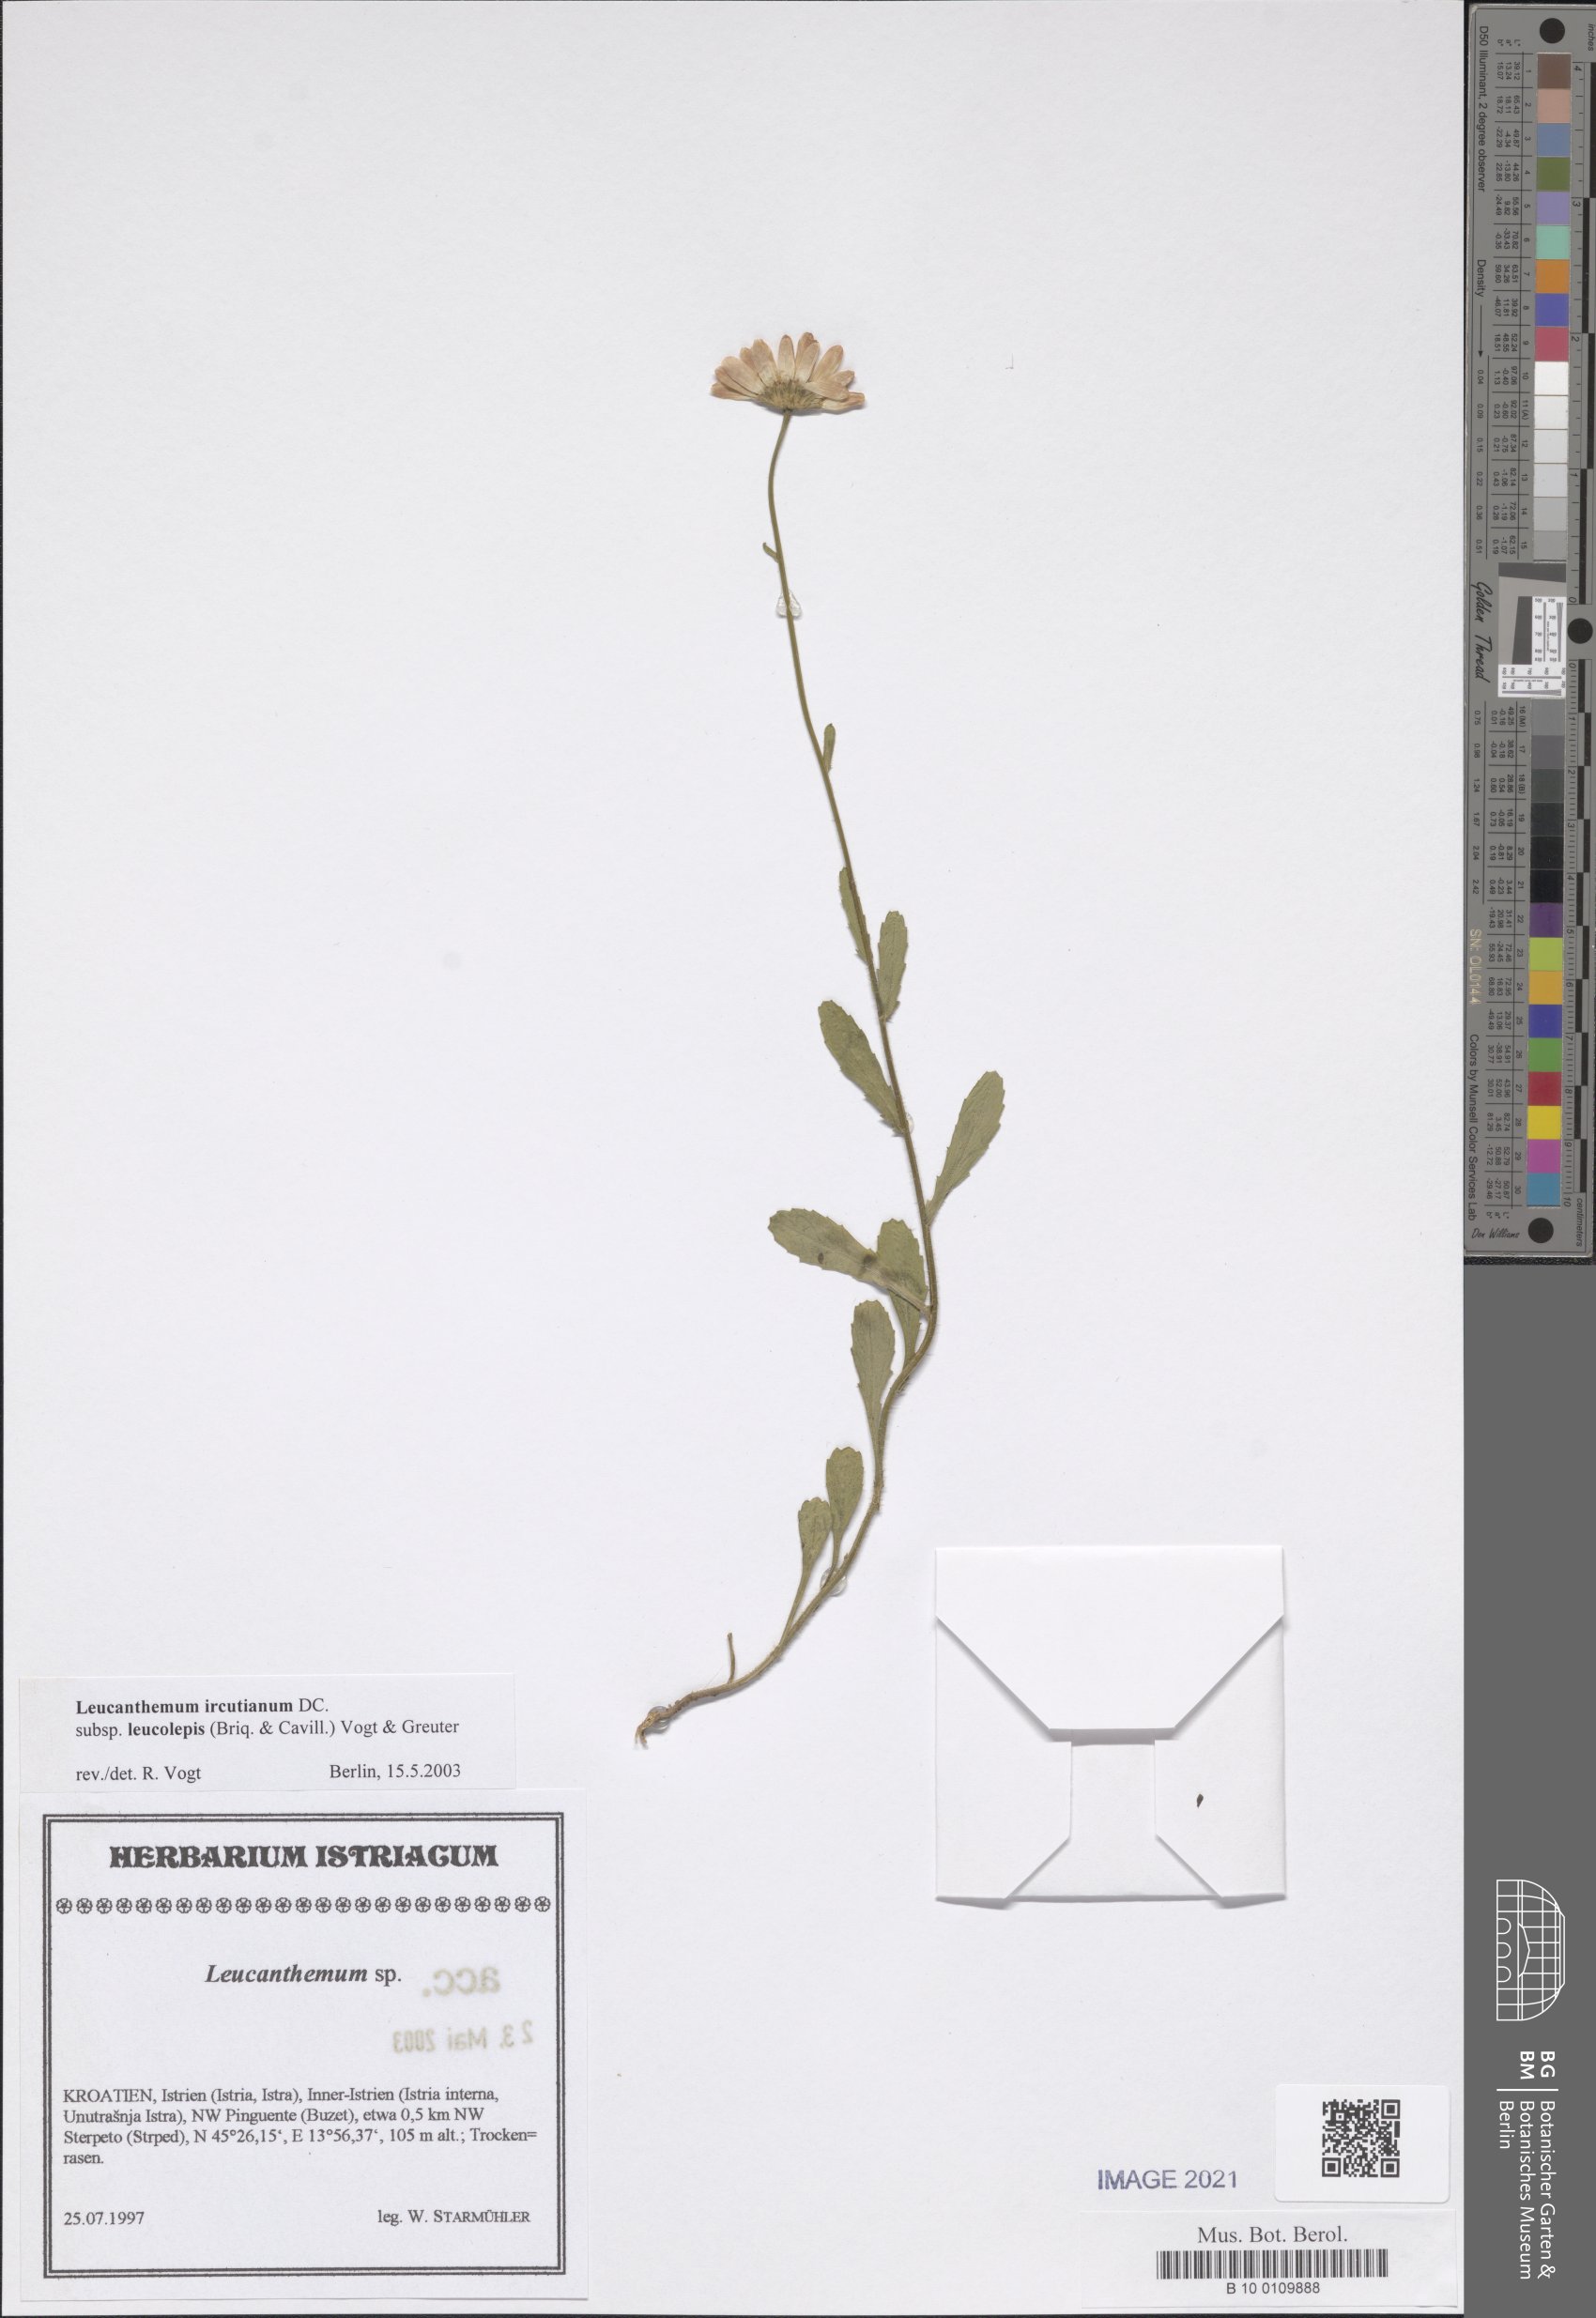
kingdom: Plantae
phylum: Tracheophyta
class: Magnoliopsida
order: Asterales
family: Asteraceae
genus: Leucanthemum
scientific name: Leucanthemum ircutianum
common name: Daisy
